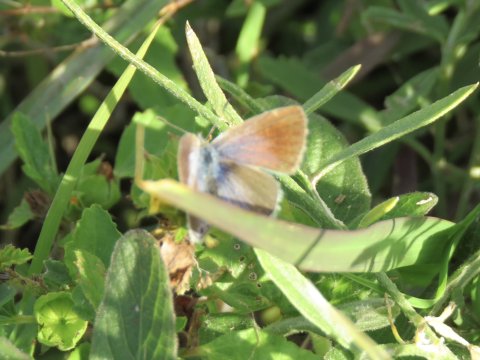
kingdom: Animalia
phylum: Arthropoda
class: Insecta
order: Lepidoptera
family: Lycaenidae
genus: Hemiargus
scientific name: Hemiargus ceraunus
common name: Ceraunus Blue
